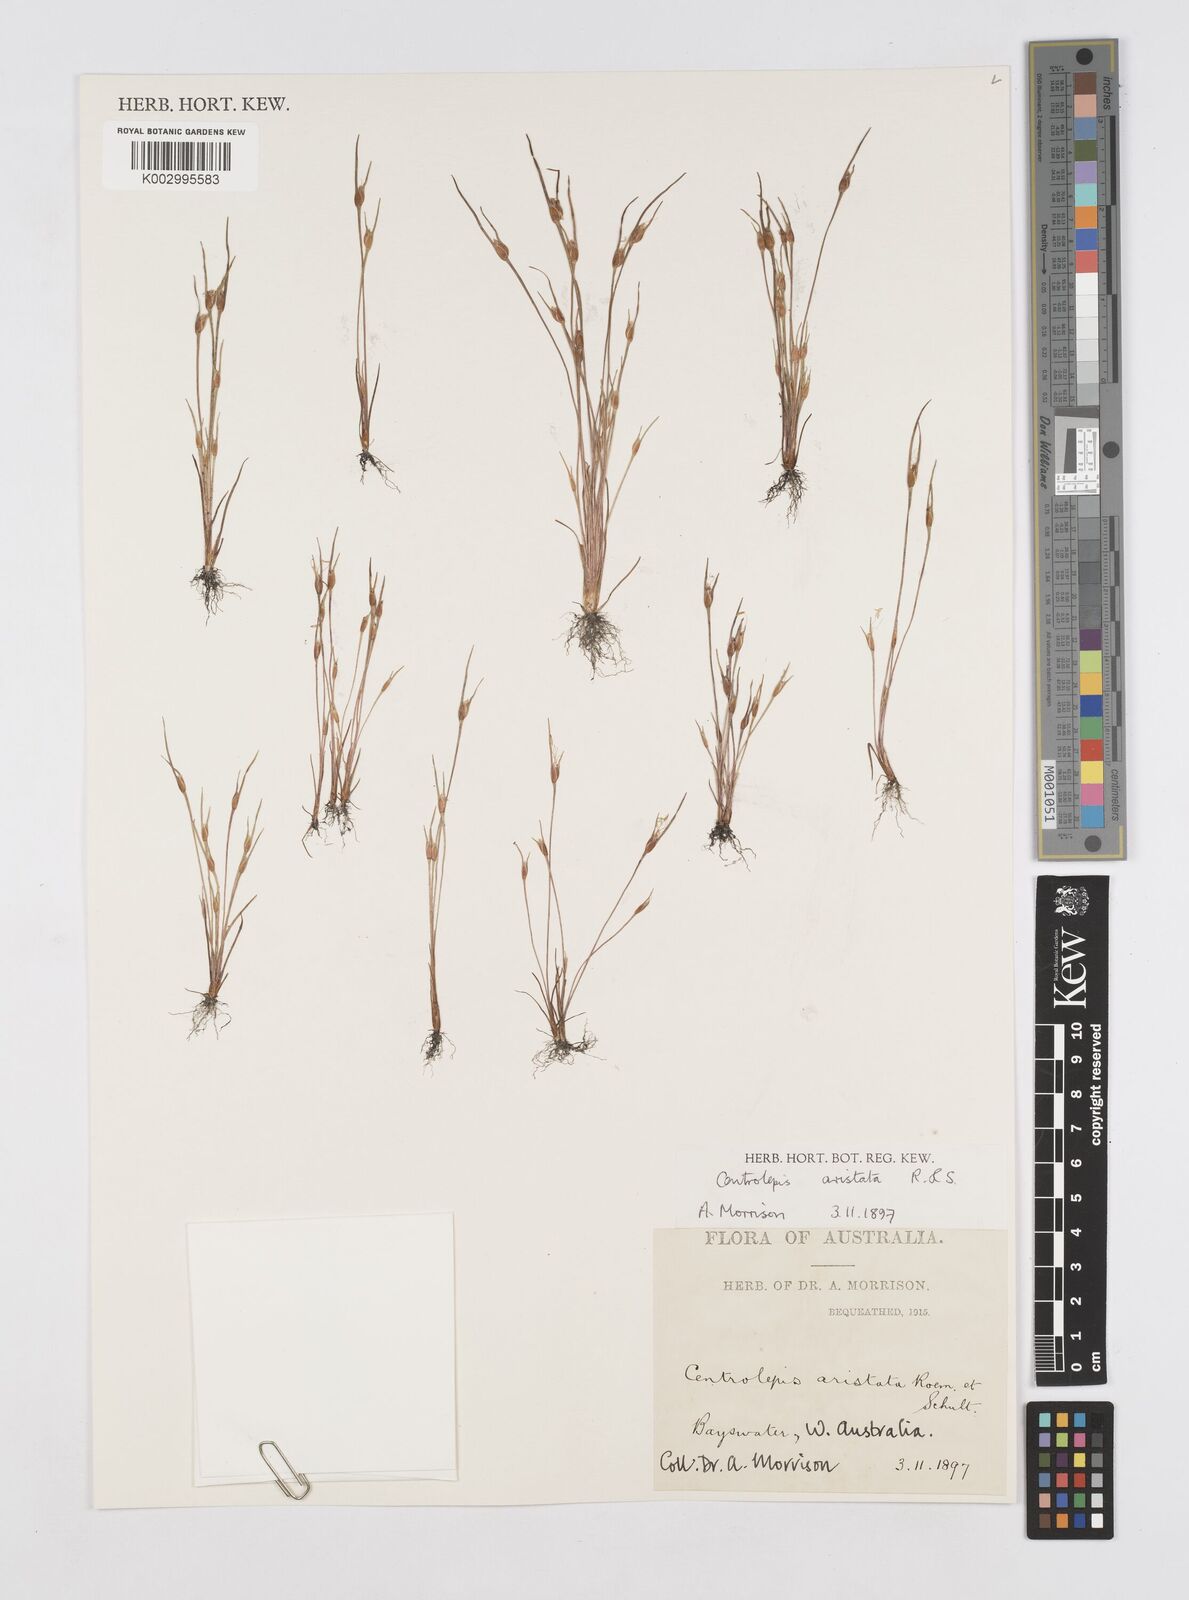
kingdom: Plantae
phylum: Tracheophyta
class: Liliopsida
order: Poales
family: Restionaceae
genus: Centrolepis
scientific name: Centrolepis aristata
